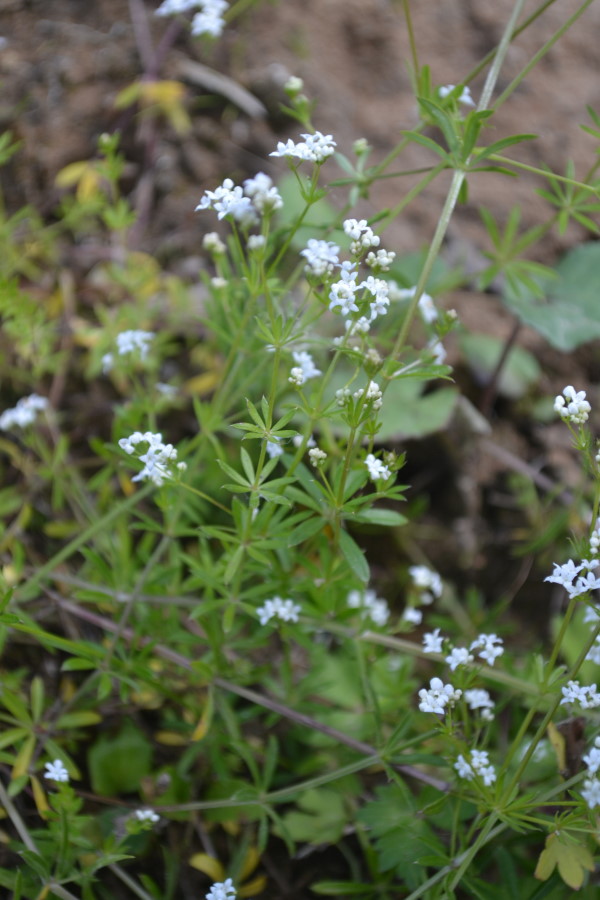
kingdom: Plantae
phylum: Tracheophyta
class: Magnoliopsida
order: Gentianales
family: Rubiaceae
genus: Galium
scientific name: Galium uliginosum
